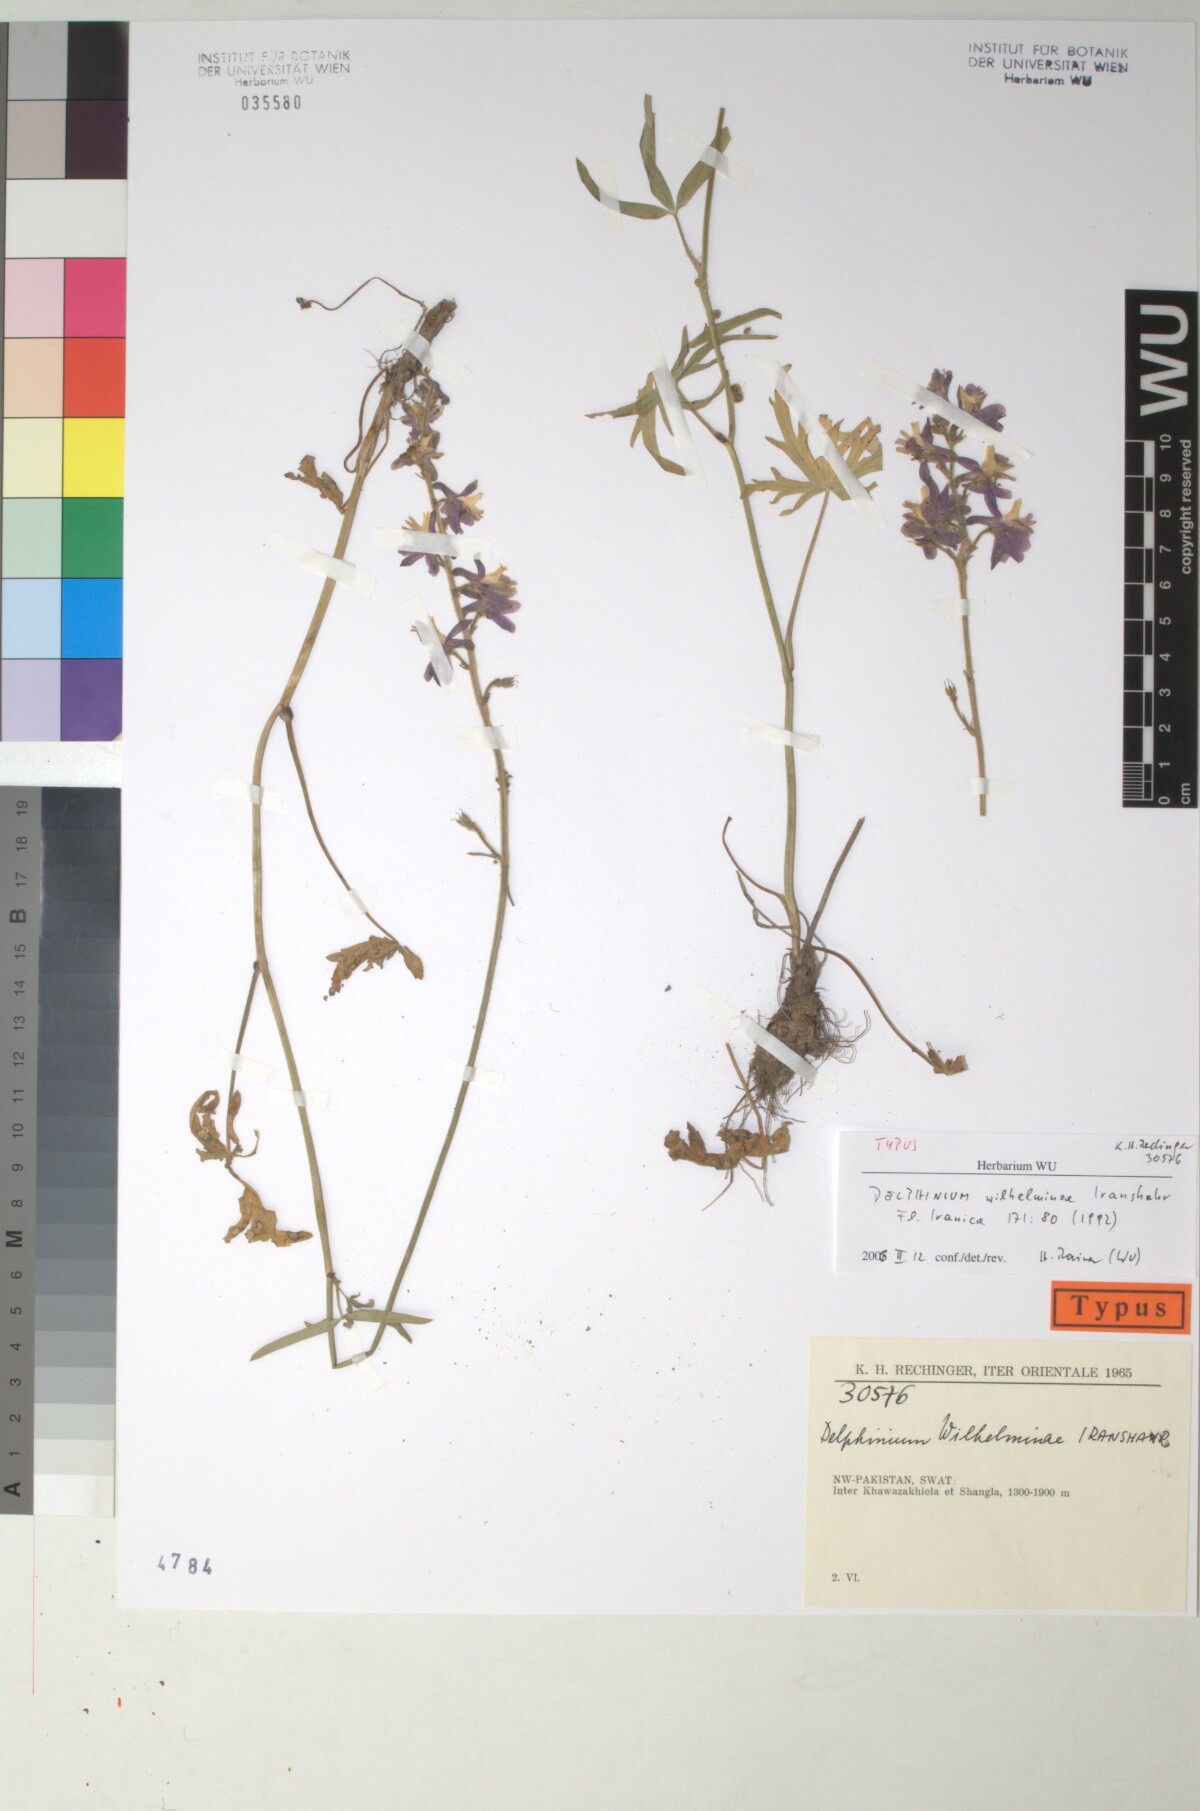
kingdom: Plantae
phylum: Tracheophyta
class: Magnoliopsida
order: Ranunculales
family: Ranunculaceae
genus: Delphinium
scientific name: Delphinium wilhelminae
